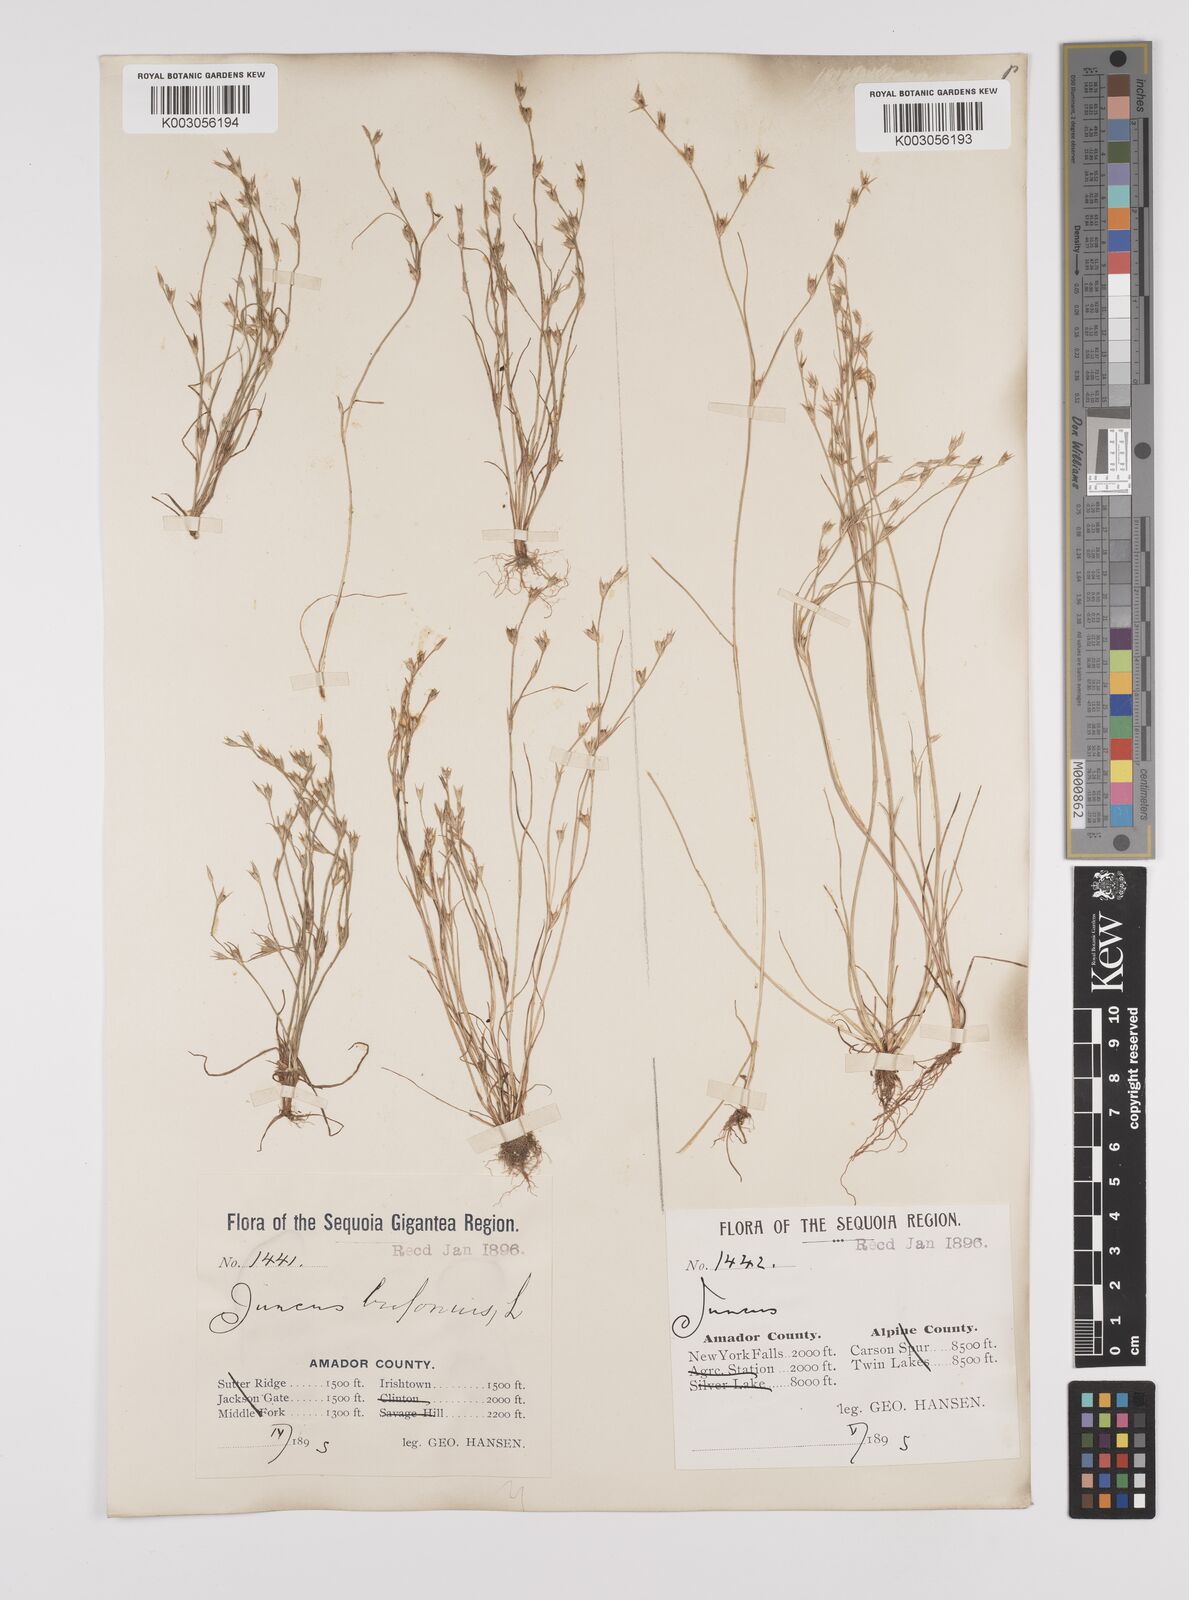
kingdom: Plantae
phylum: Tracheophyta
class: Liliopsida
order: Poales
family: Juncaceae
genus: Juncus
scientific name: Juncus bufonius
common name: Toad rush
